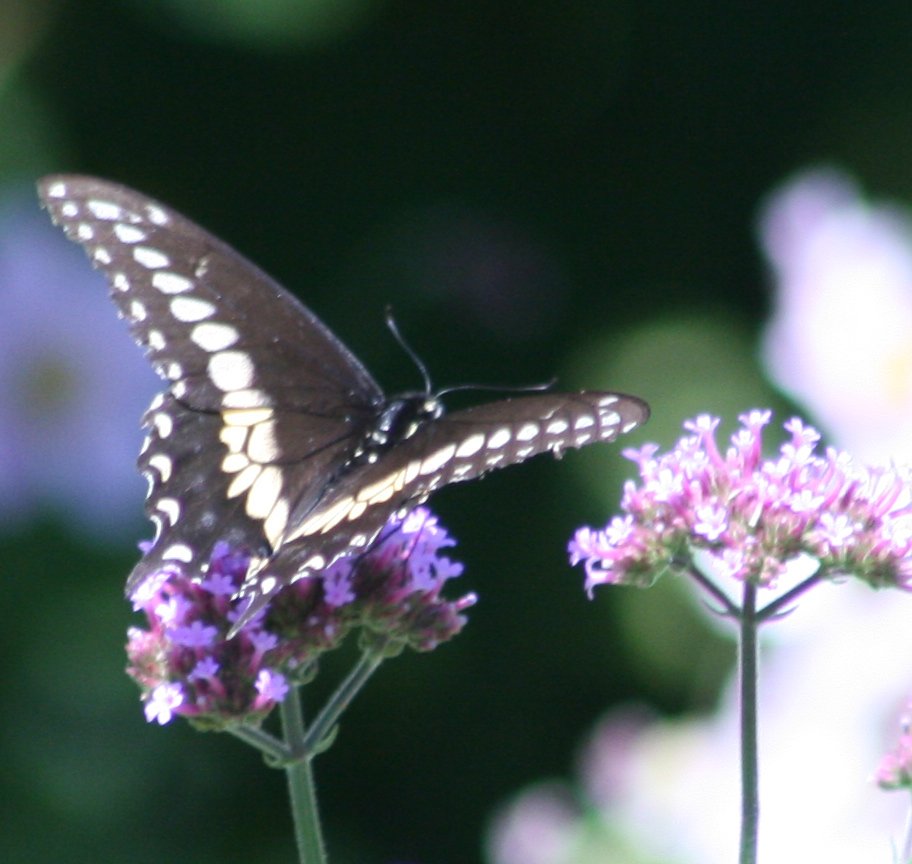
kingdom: Animalia
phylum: Arthropoda
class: Insecta
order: Lepidoptera
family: Papilionidae
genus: Papilio
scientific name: Papilio polyxenes
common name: Black Swallowtail
